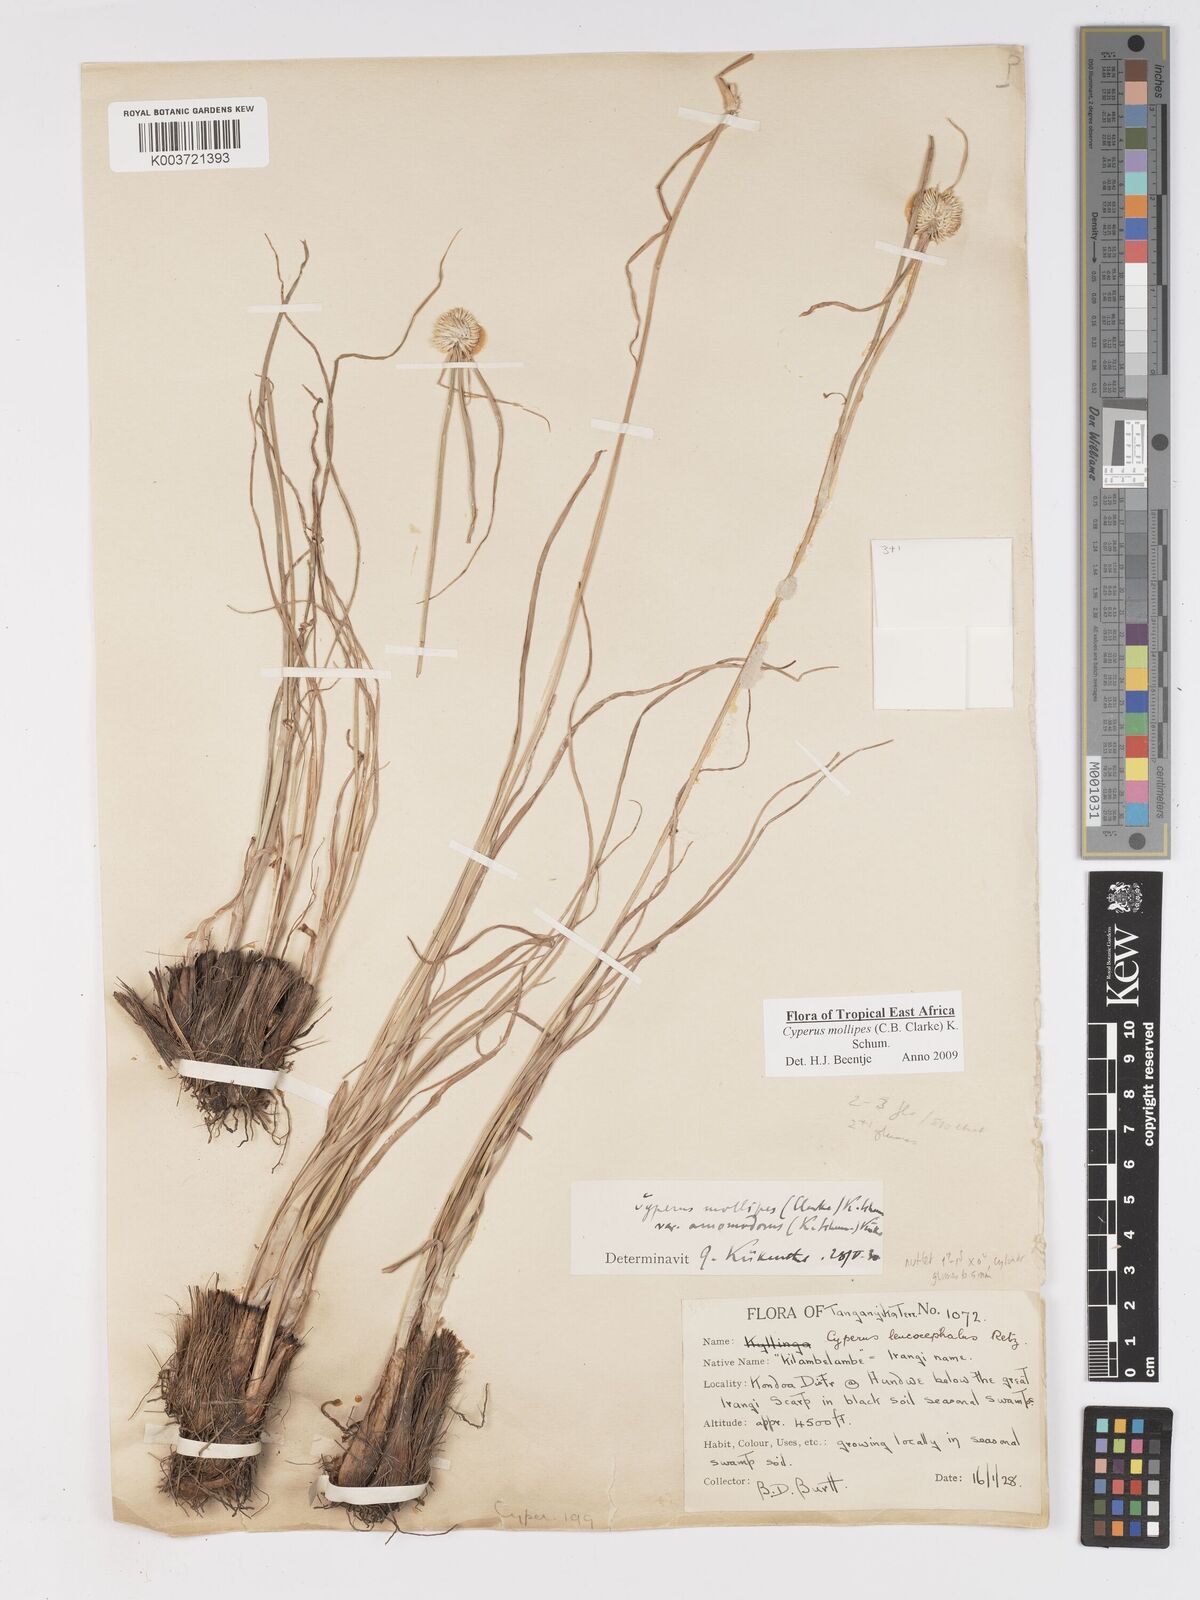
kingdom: Plantae
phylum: Tracheophyta
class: Liliopsida
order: Poales
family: Cyperaceae
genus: Cyperus
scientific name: Cyperus mollipes
